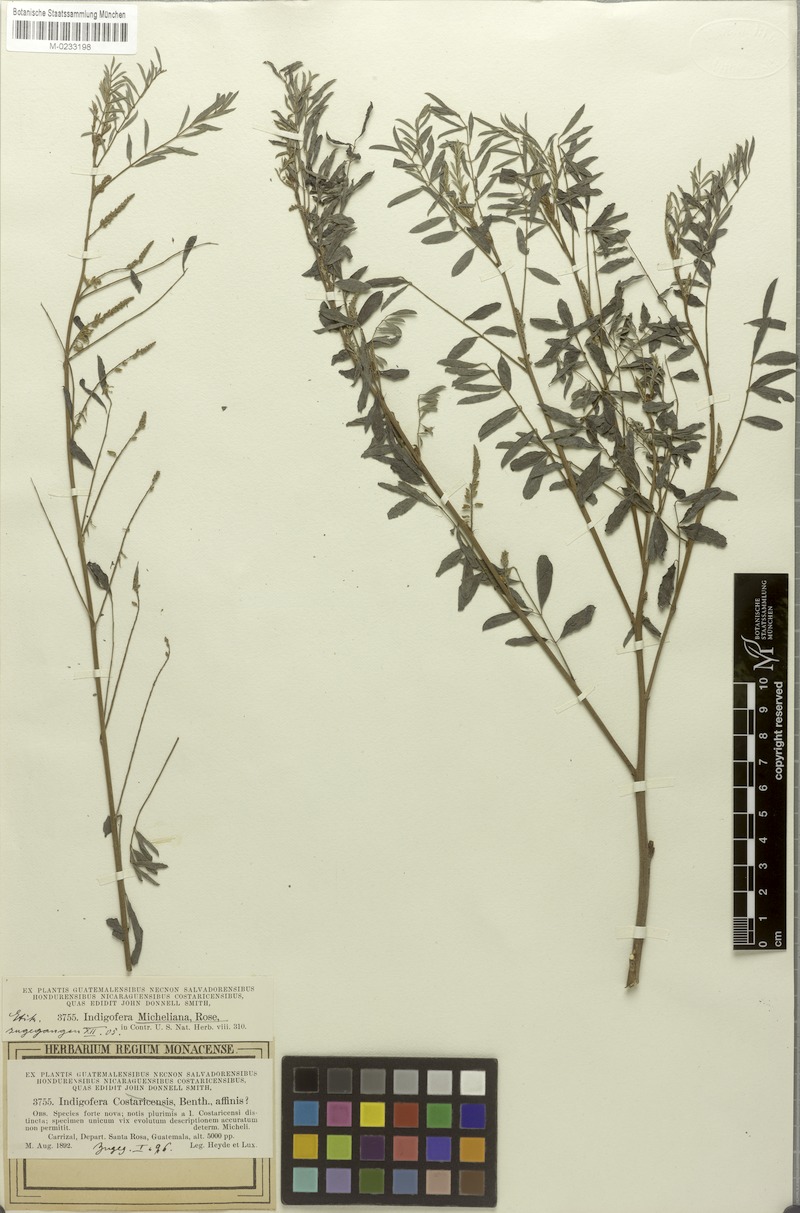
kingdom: Plantae
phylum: Tracheophyta
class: Magnoliopsida
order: Fabales
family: Fabaceae
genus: Indigofera
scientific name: Indigofera micheliana
